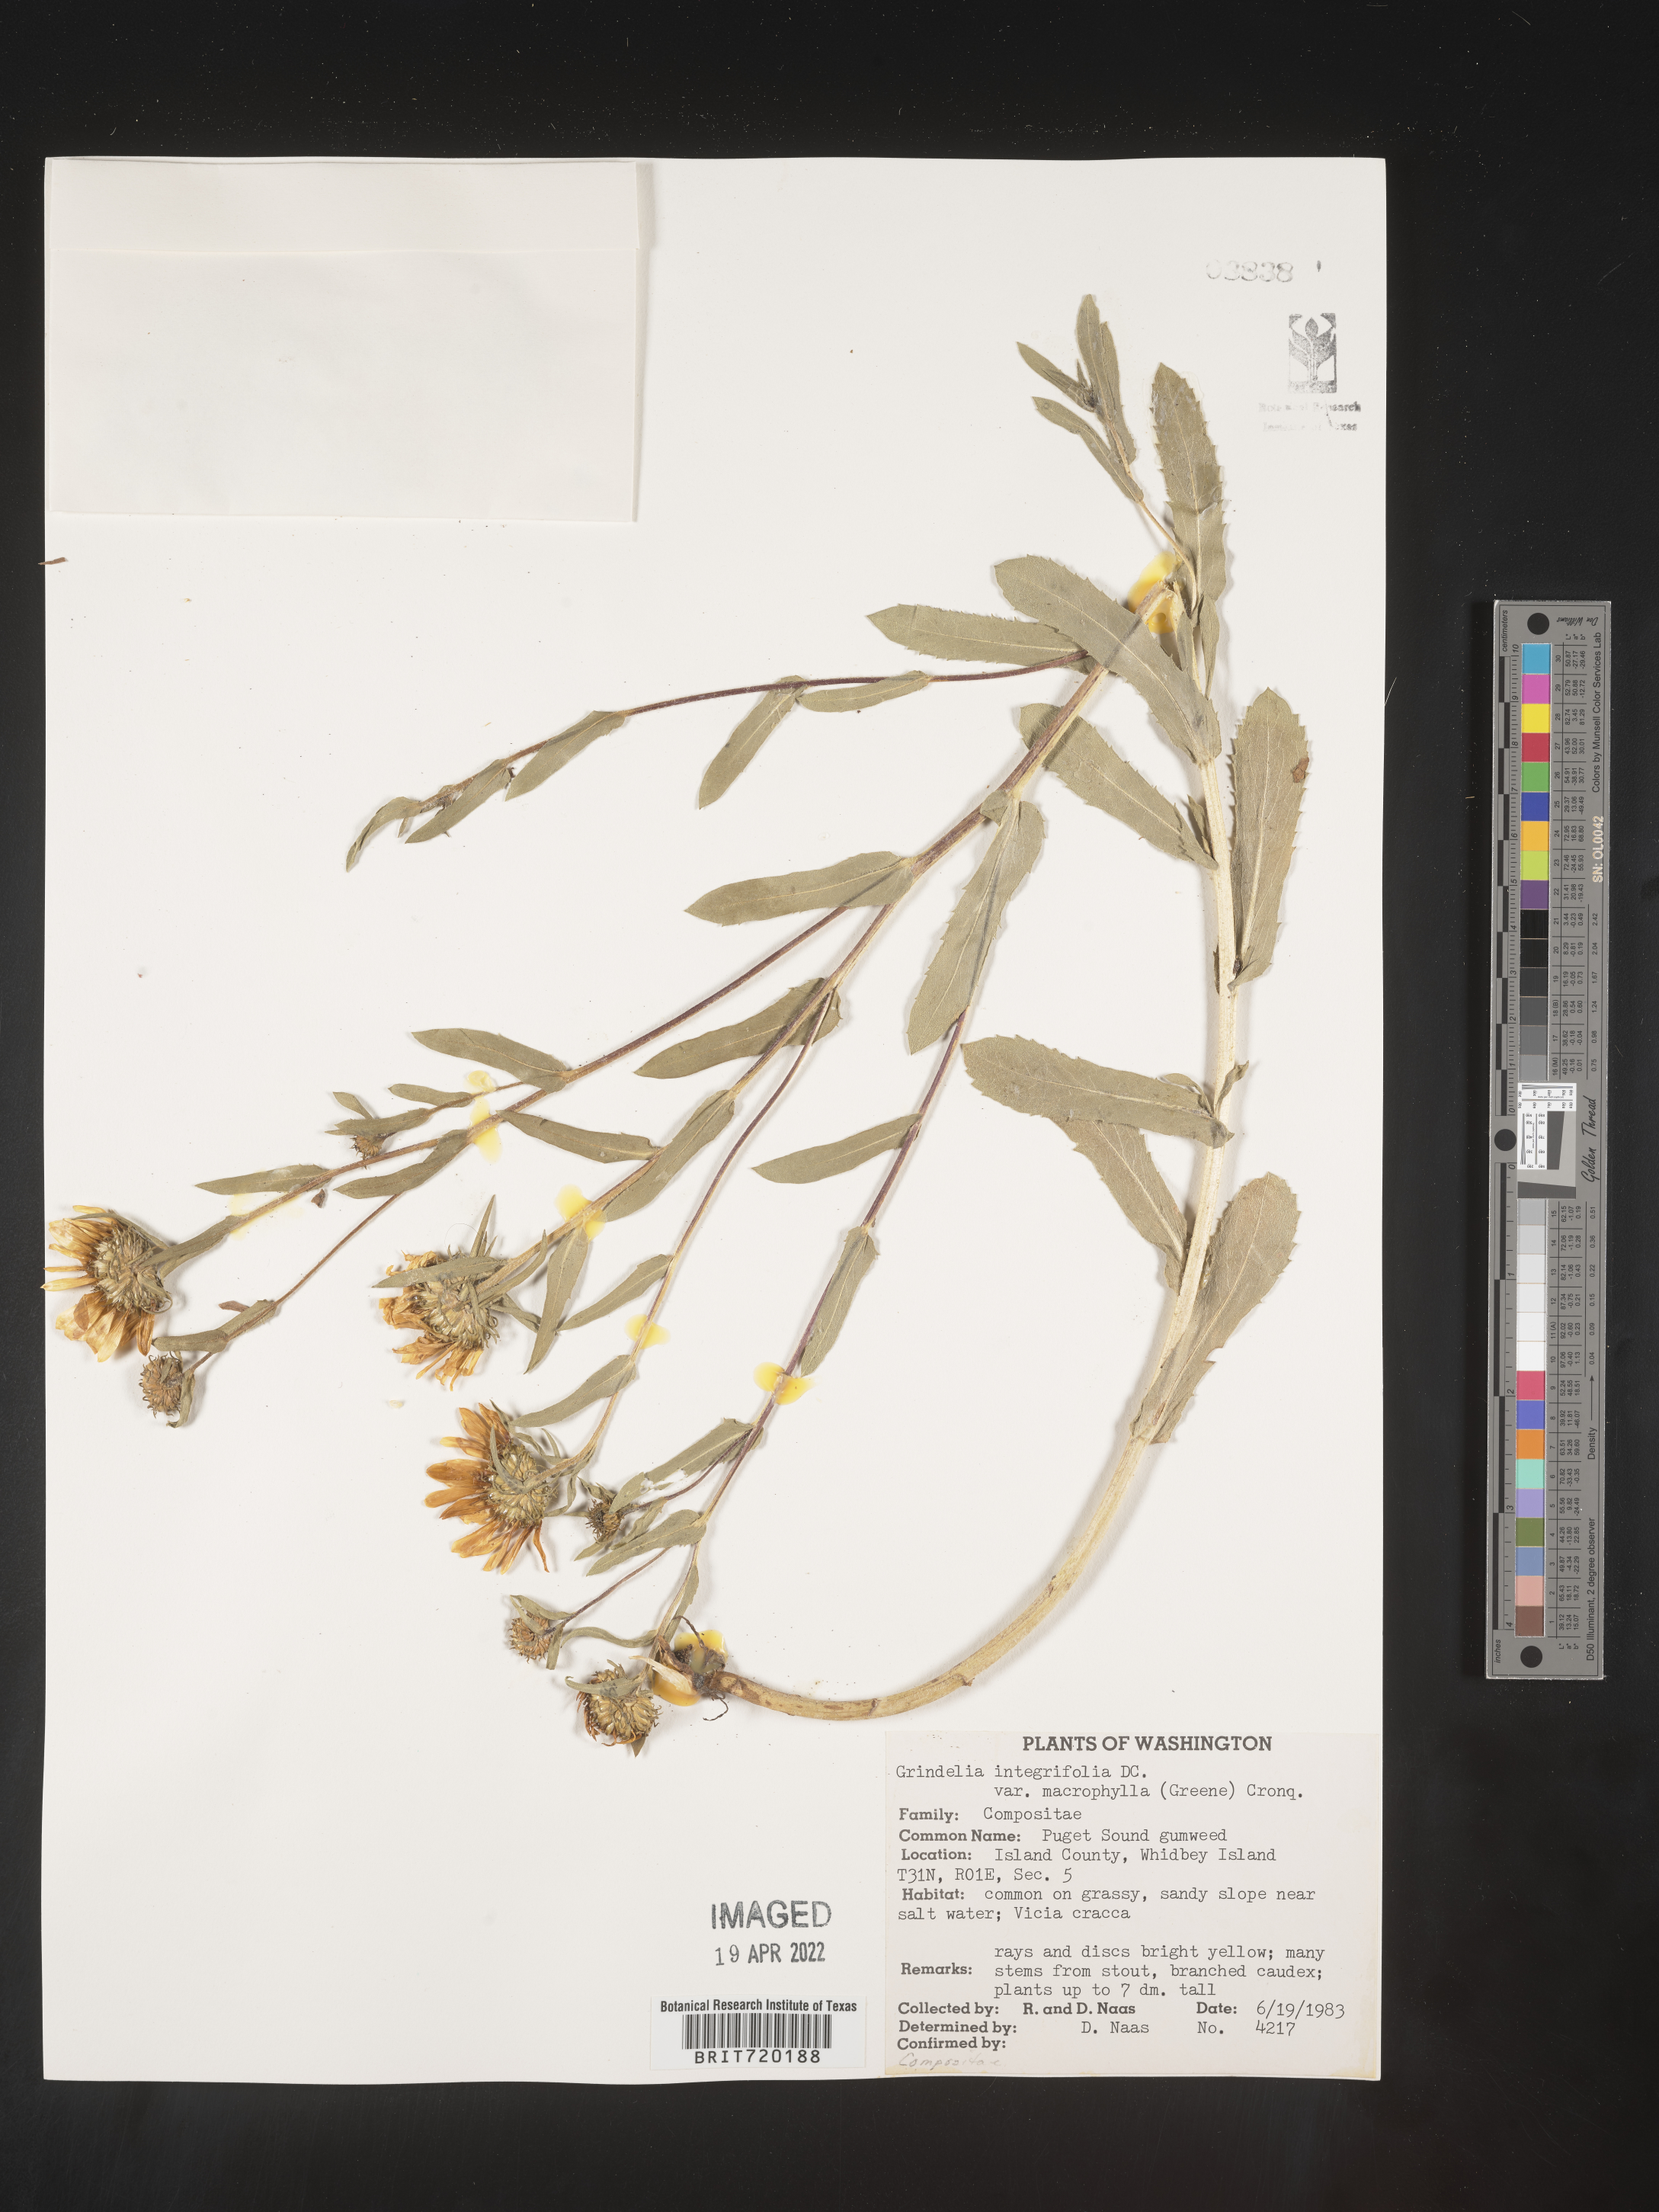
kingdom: Plantae
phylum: Tracheophyta
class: Magnoliopsida
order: Asterales
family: Asteraceae
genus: Grindelia
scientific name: Grindelia integrifolia
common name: Puget sound gumweed
